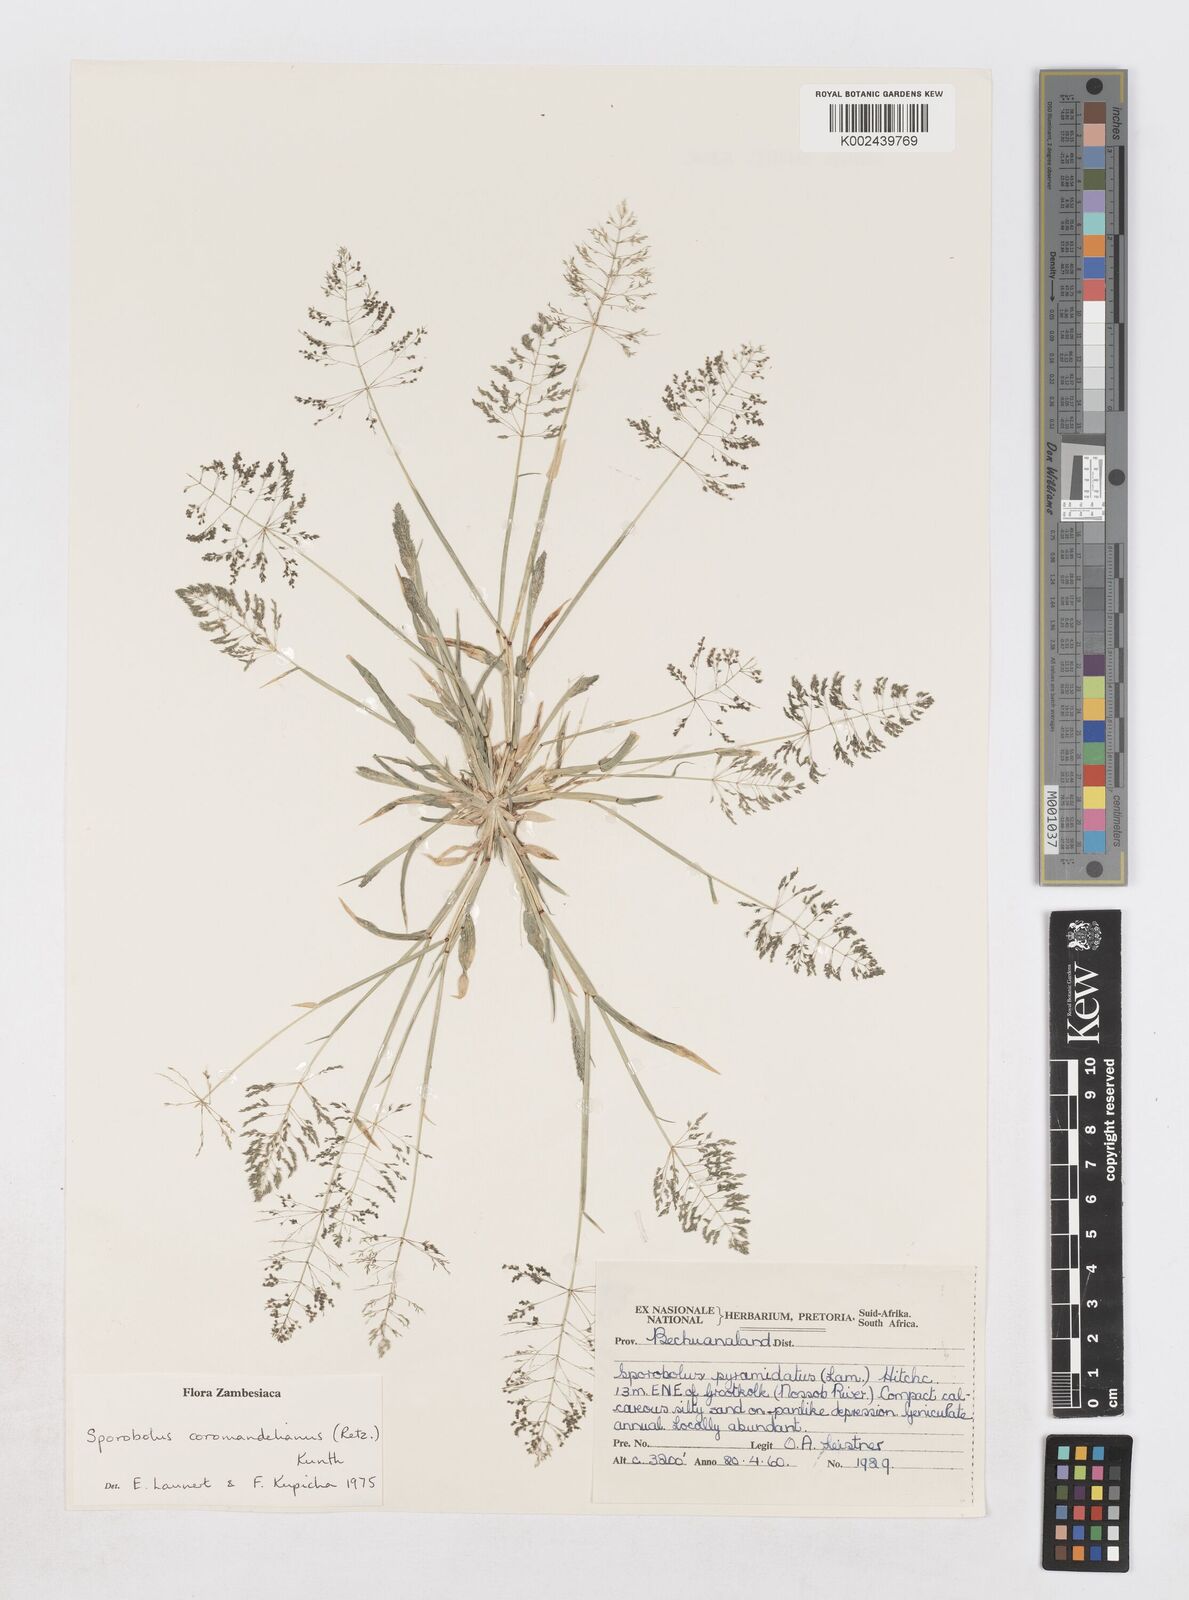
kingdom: Plantae
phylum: Tracheophyta
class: Liliopsida
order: Poales
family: Poaceae
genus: Sporobolus
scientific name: Sporobolus coromandelianus
